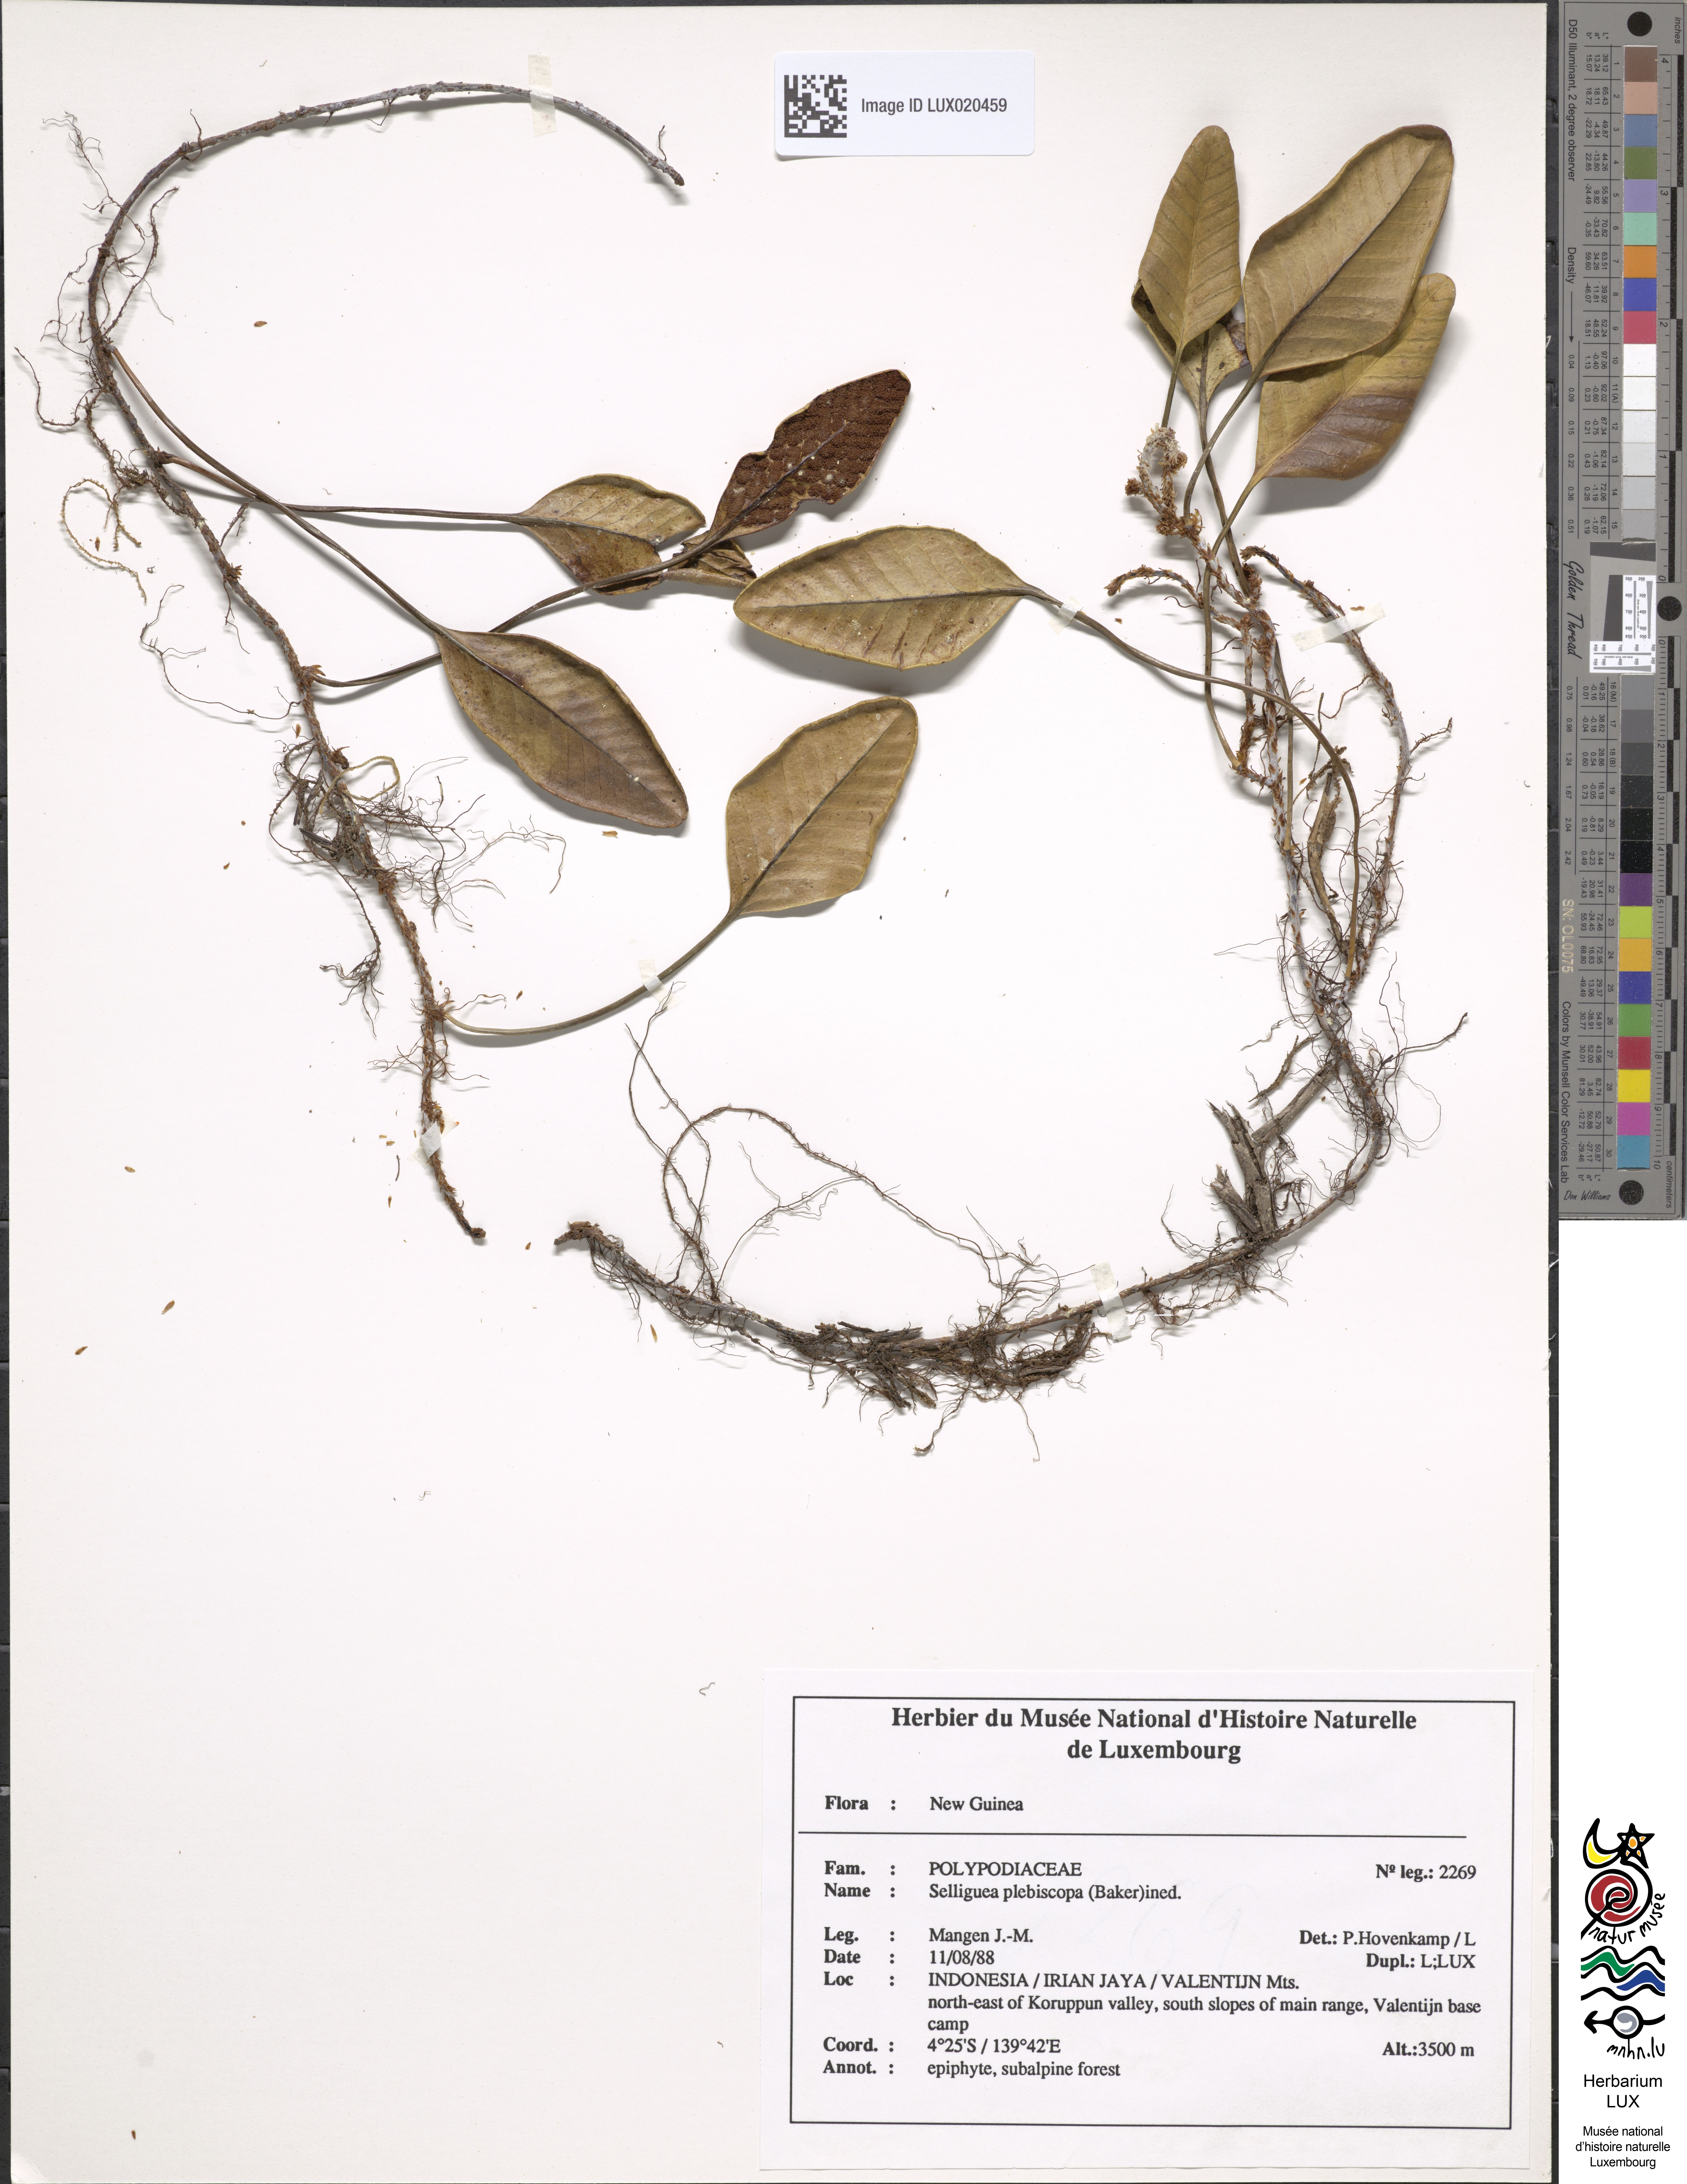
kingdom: Plantae
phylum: Tracheophyta
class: Polypodiopsida
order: Polypodiales
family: Polypodiaceae
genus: Selliguea
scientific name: Selliguea plebiscopa
